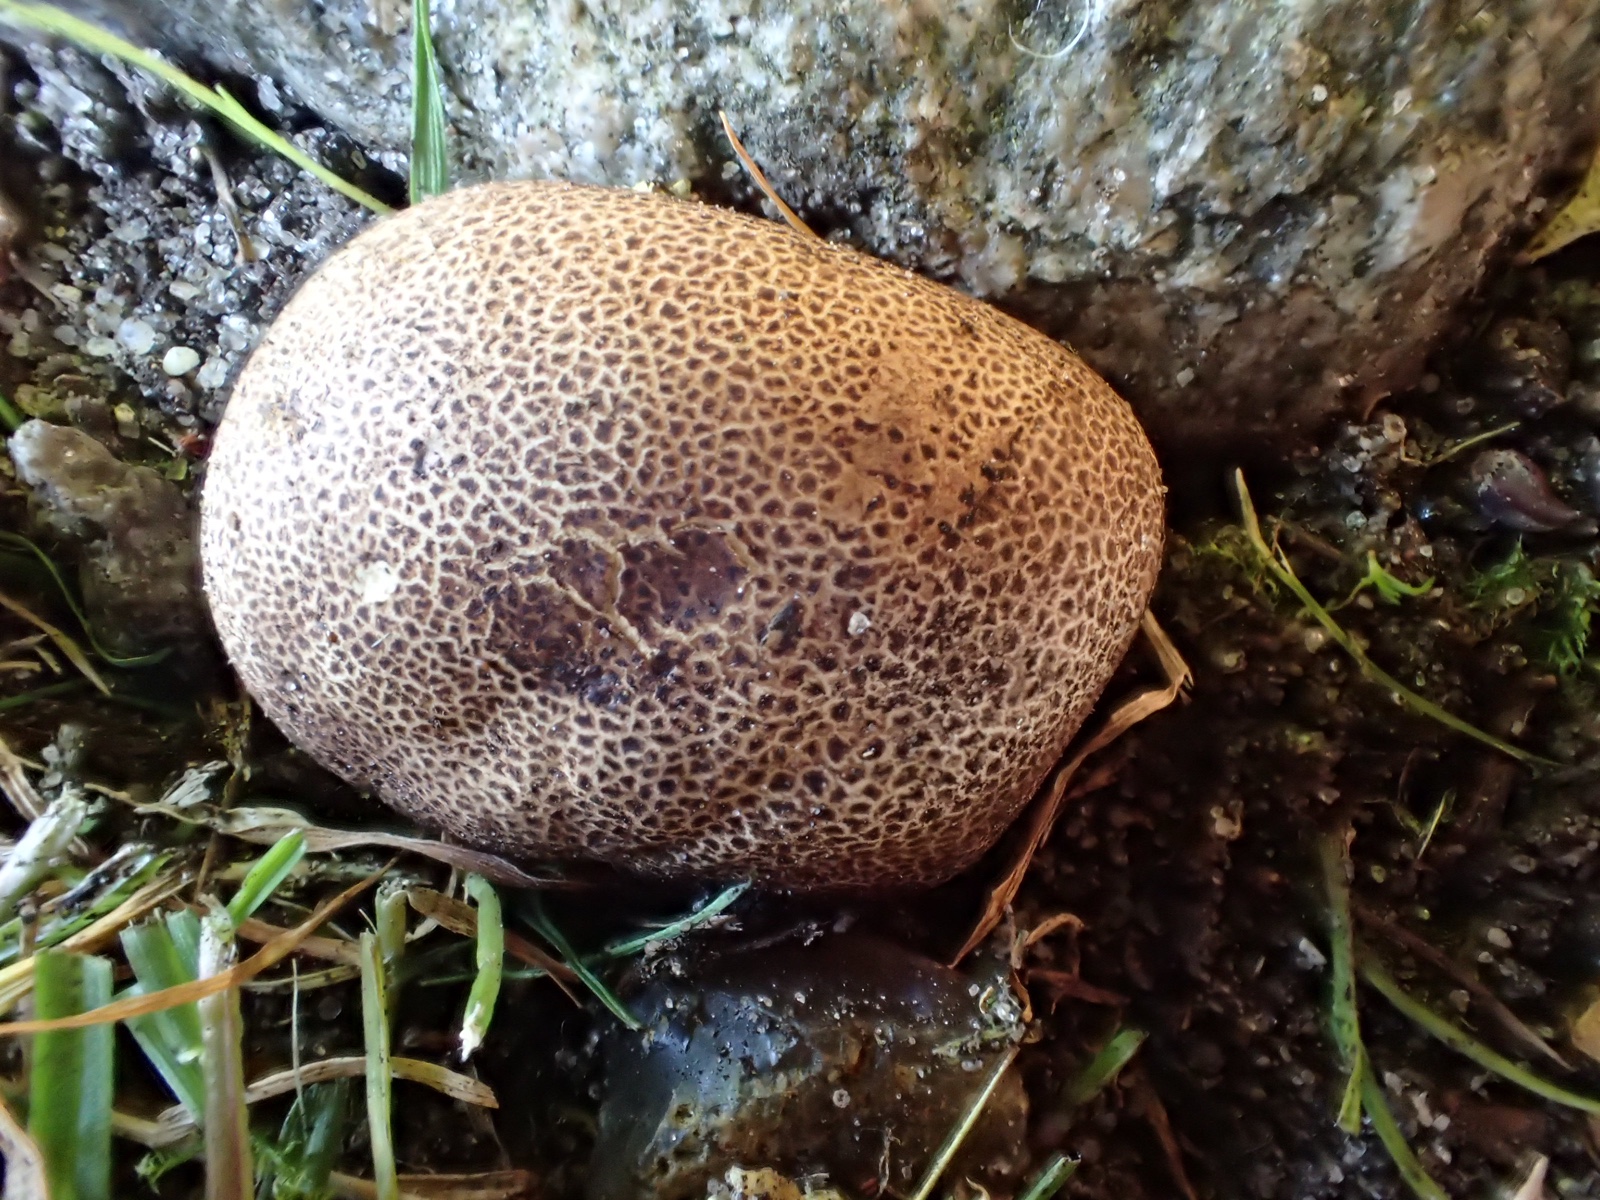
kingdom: Fungi
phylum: Basidiomycota
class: Agaricomycetes
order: Boletales
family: Sclerodermataceae
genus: Scleroderma
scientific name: Scleroderma citrinum
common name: almindelig bruskbold
